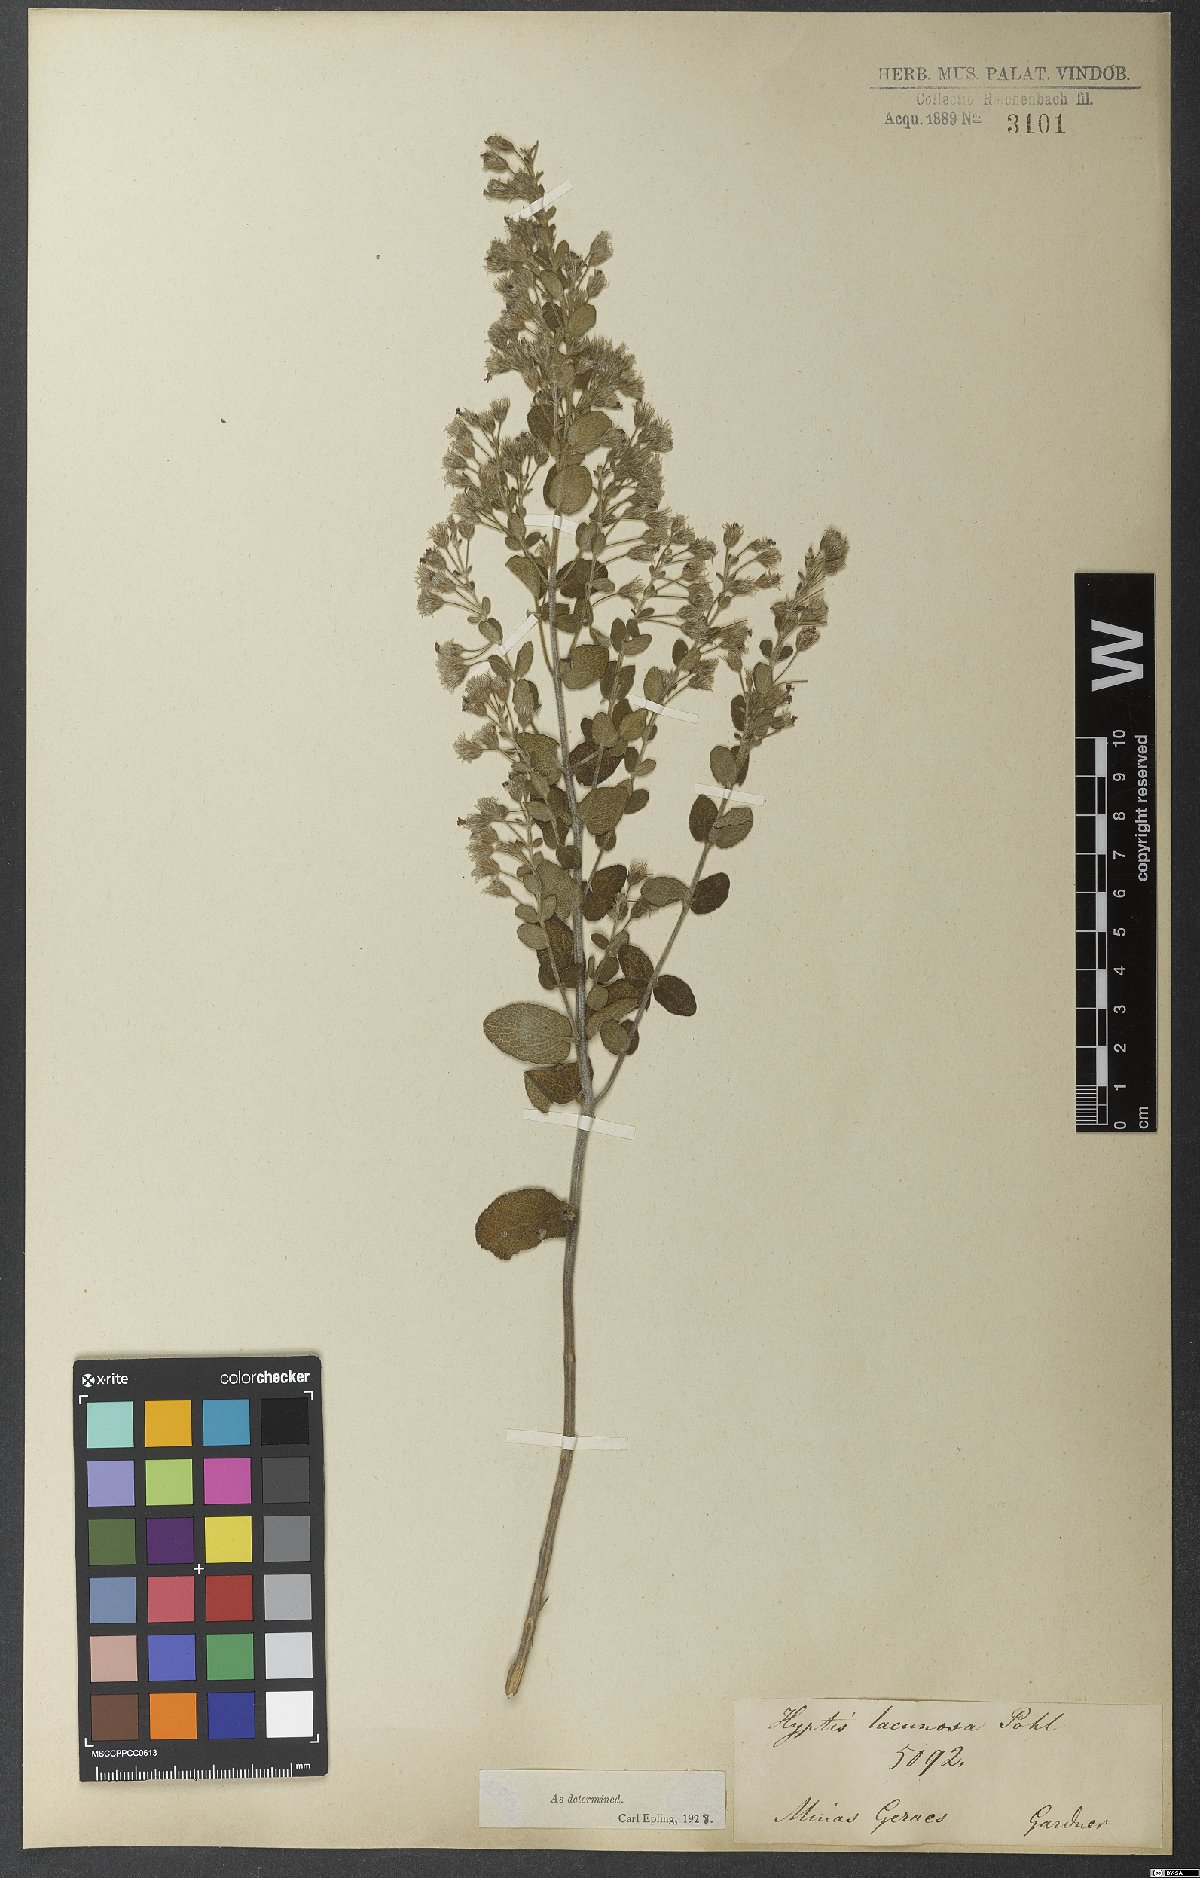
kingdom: Plantae
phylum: Tracheophyta
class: Magnoliopsida
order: Lamiales
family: Lamiaceae
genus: Oocephalus
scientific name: Oocephalus lacunosus
